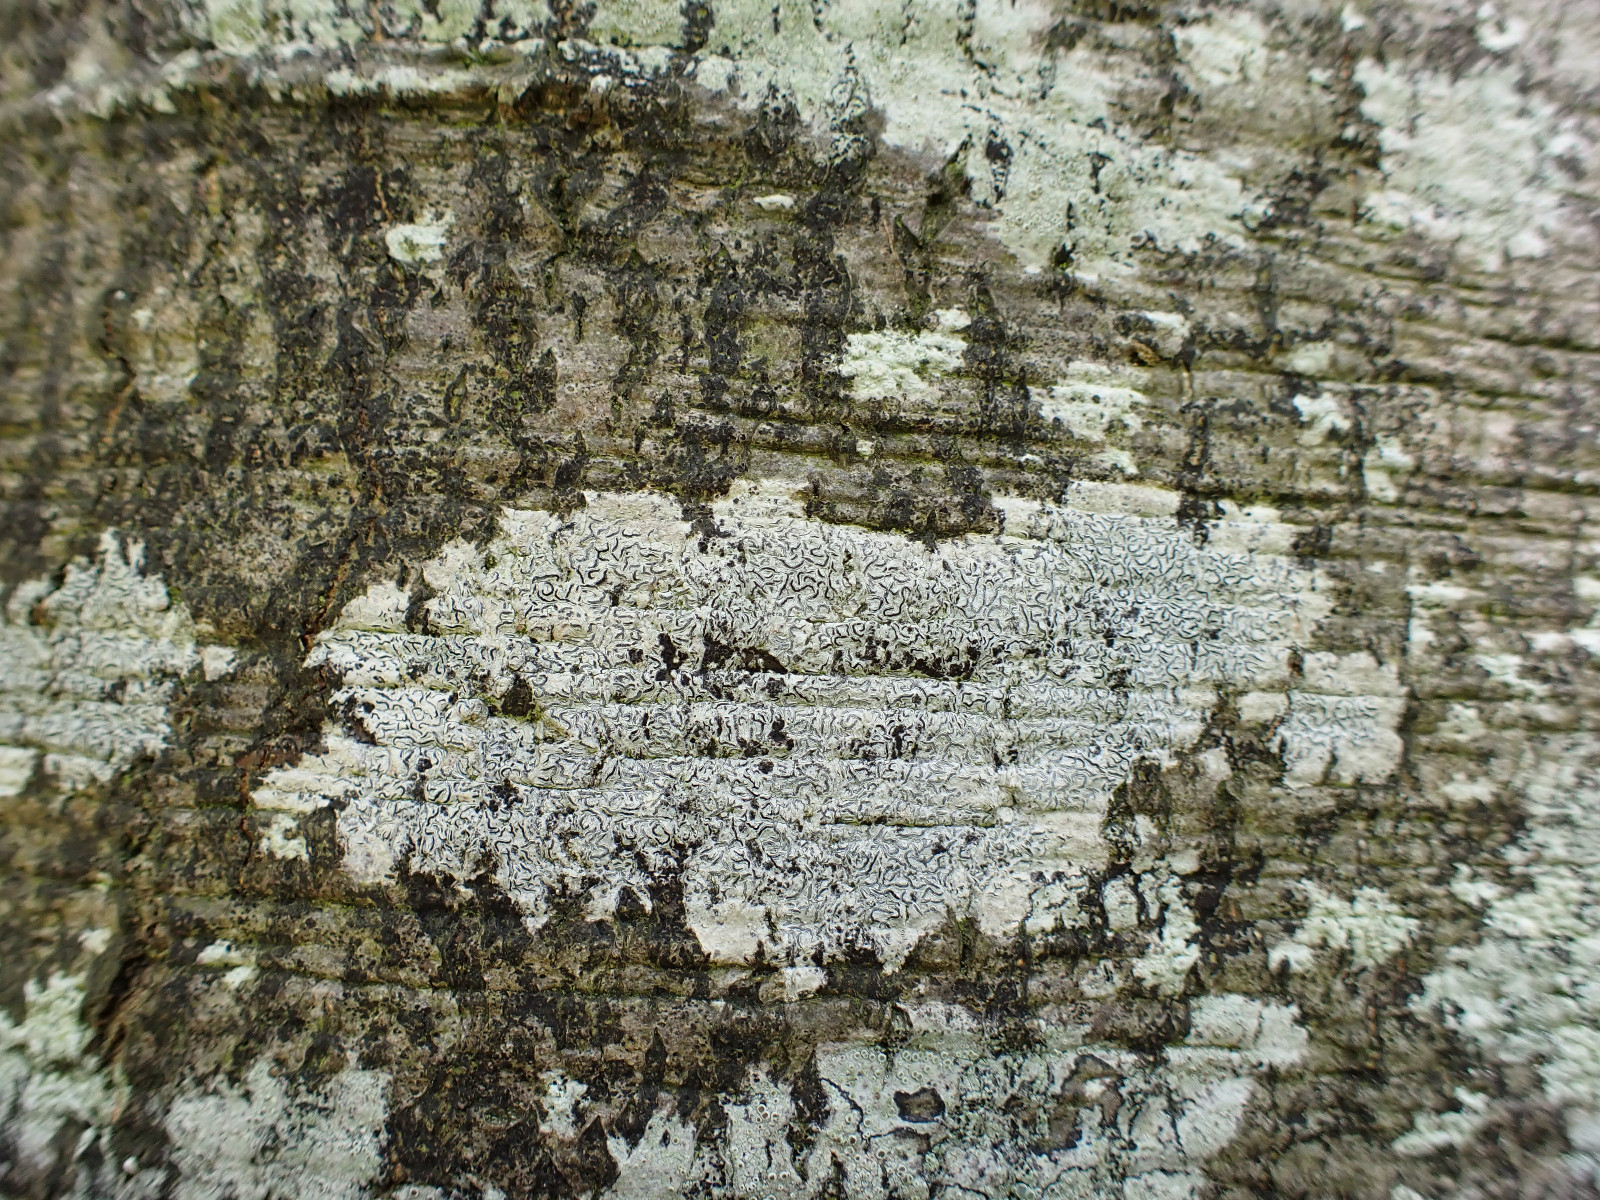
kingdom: Fungi
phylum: Ascomycota
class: Lecanoromycetes
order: Ostropales
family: Graphidaceae
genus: Graphis
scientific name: Graphis scripta
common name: almindelig skriftlav
